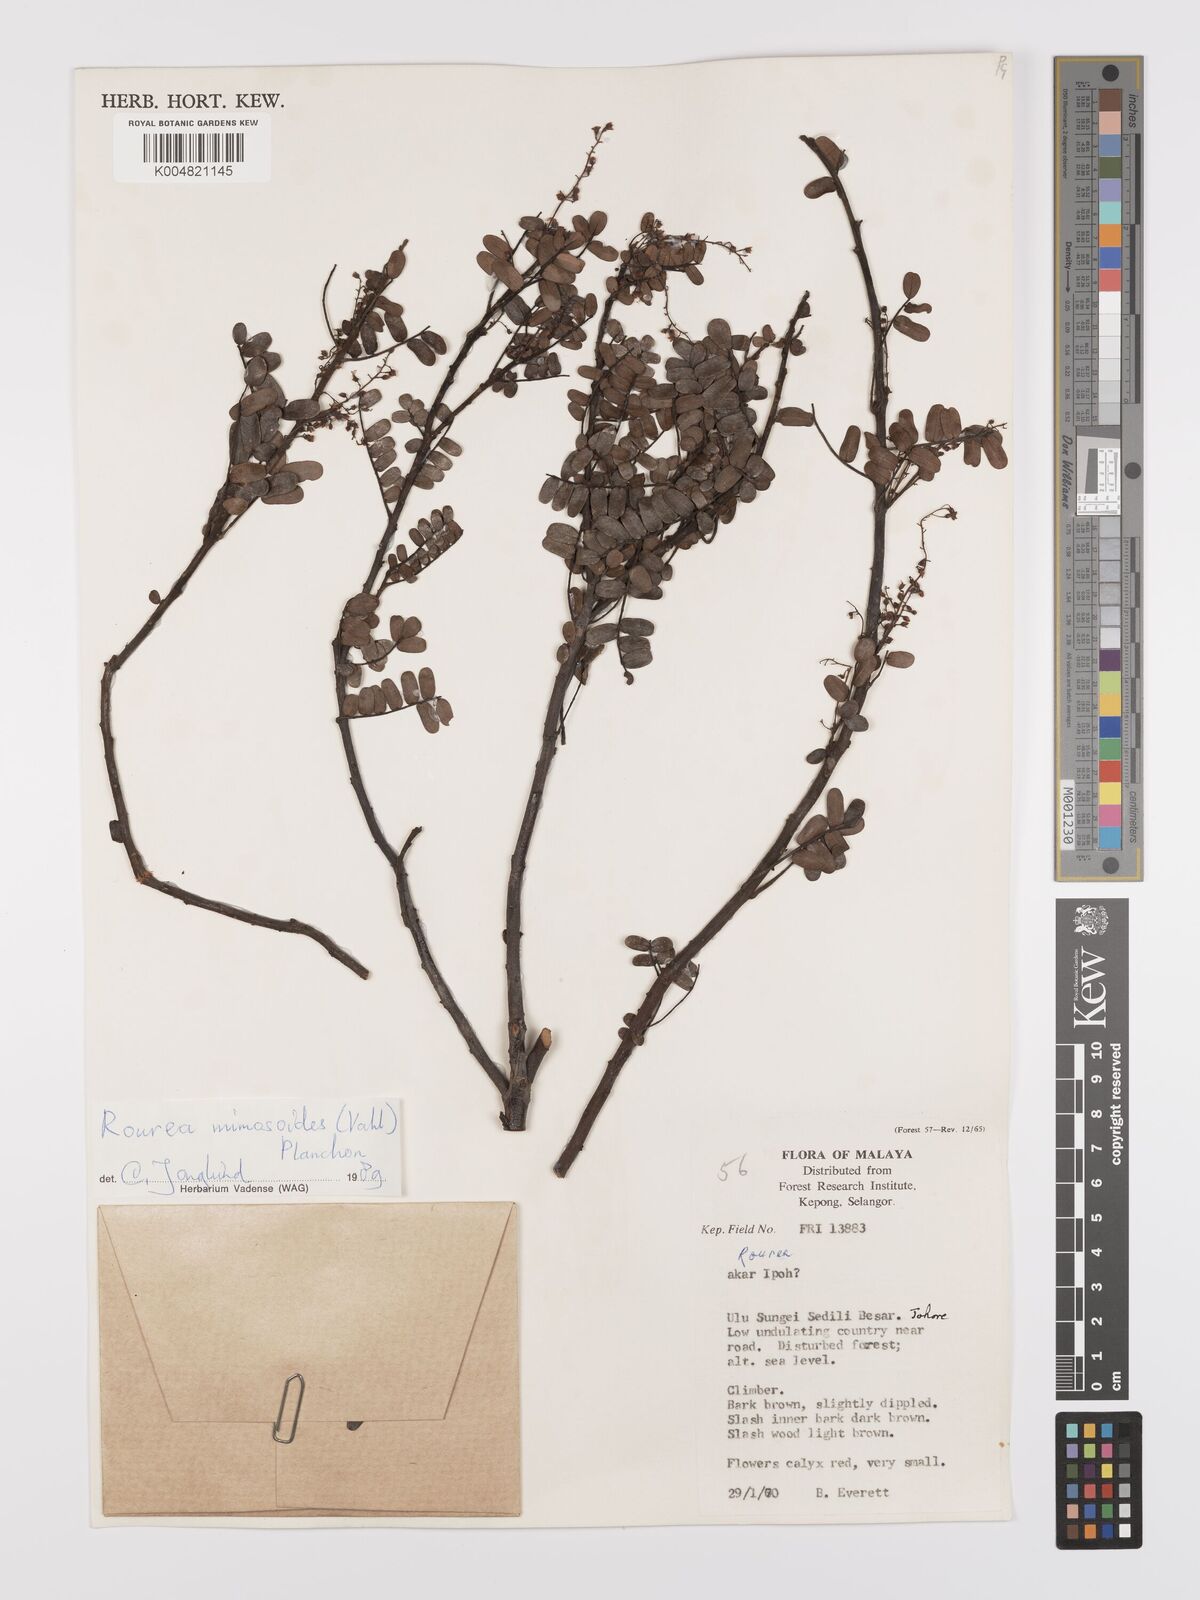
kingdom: Plantae
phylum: Tracheophyta
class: Magnoliopsida
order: Oxalidales
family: Connaraceae
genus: Rourea
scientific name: Rourea mimosoides
